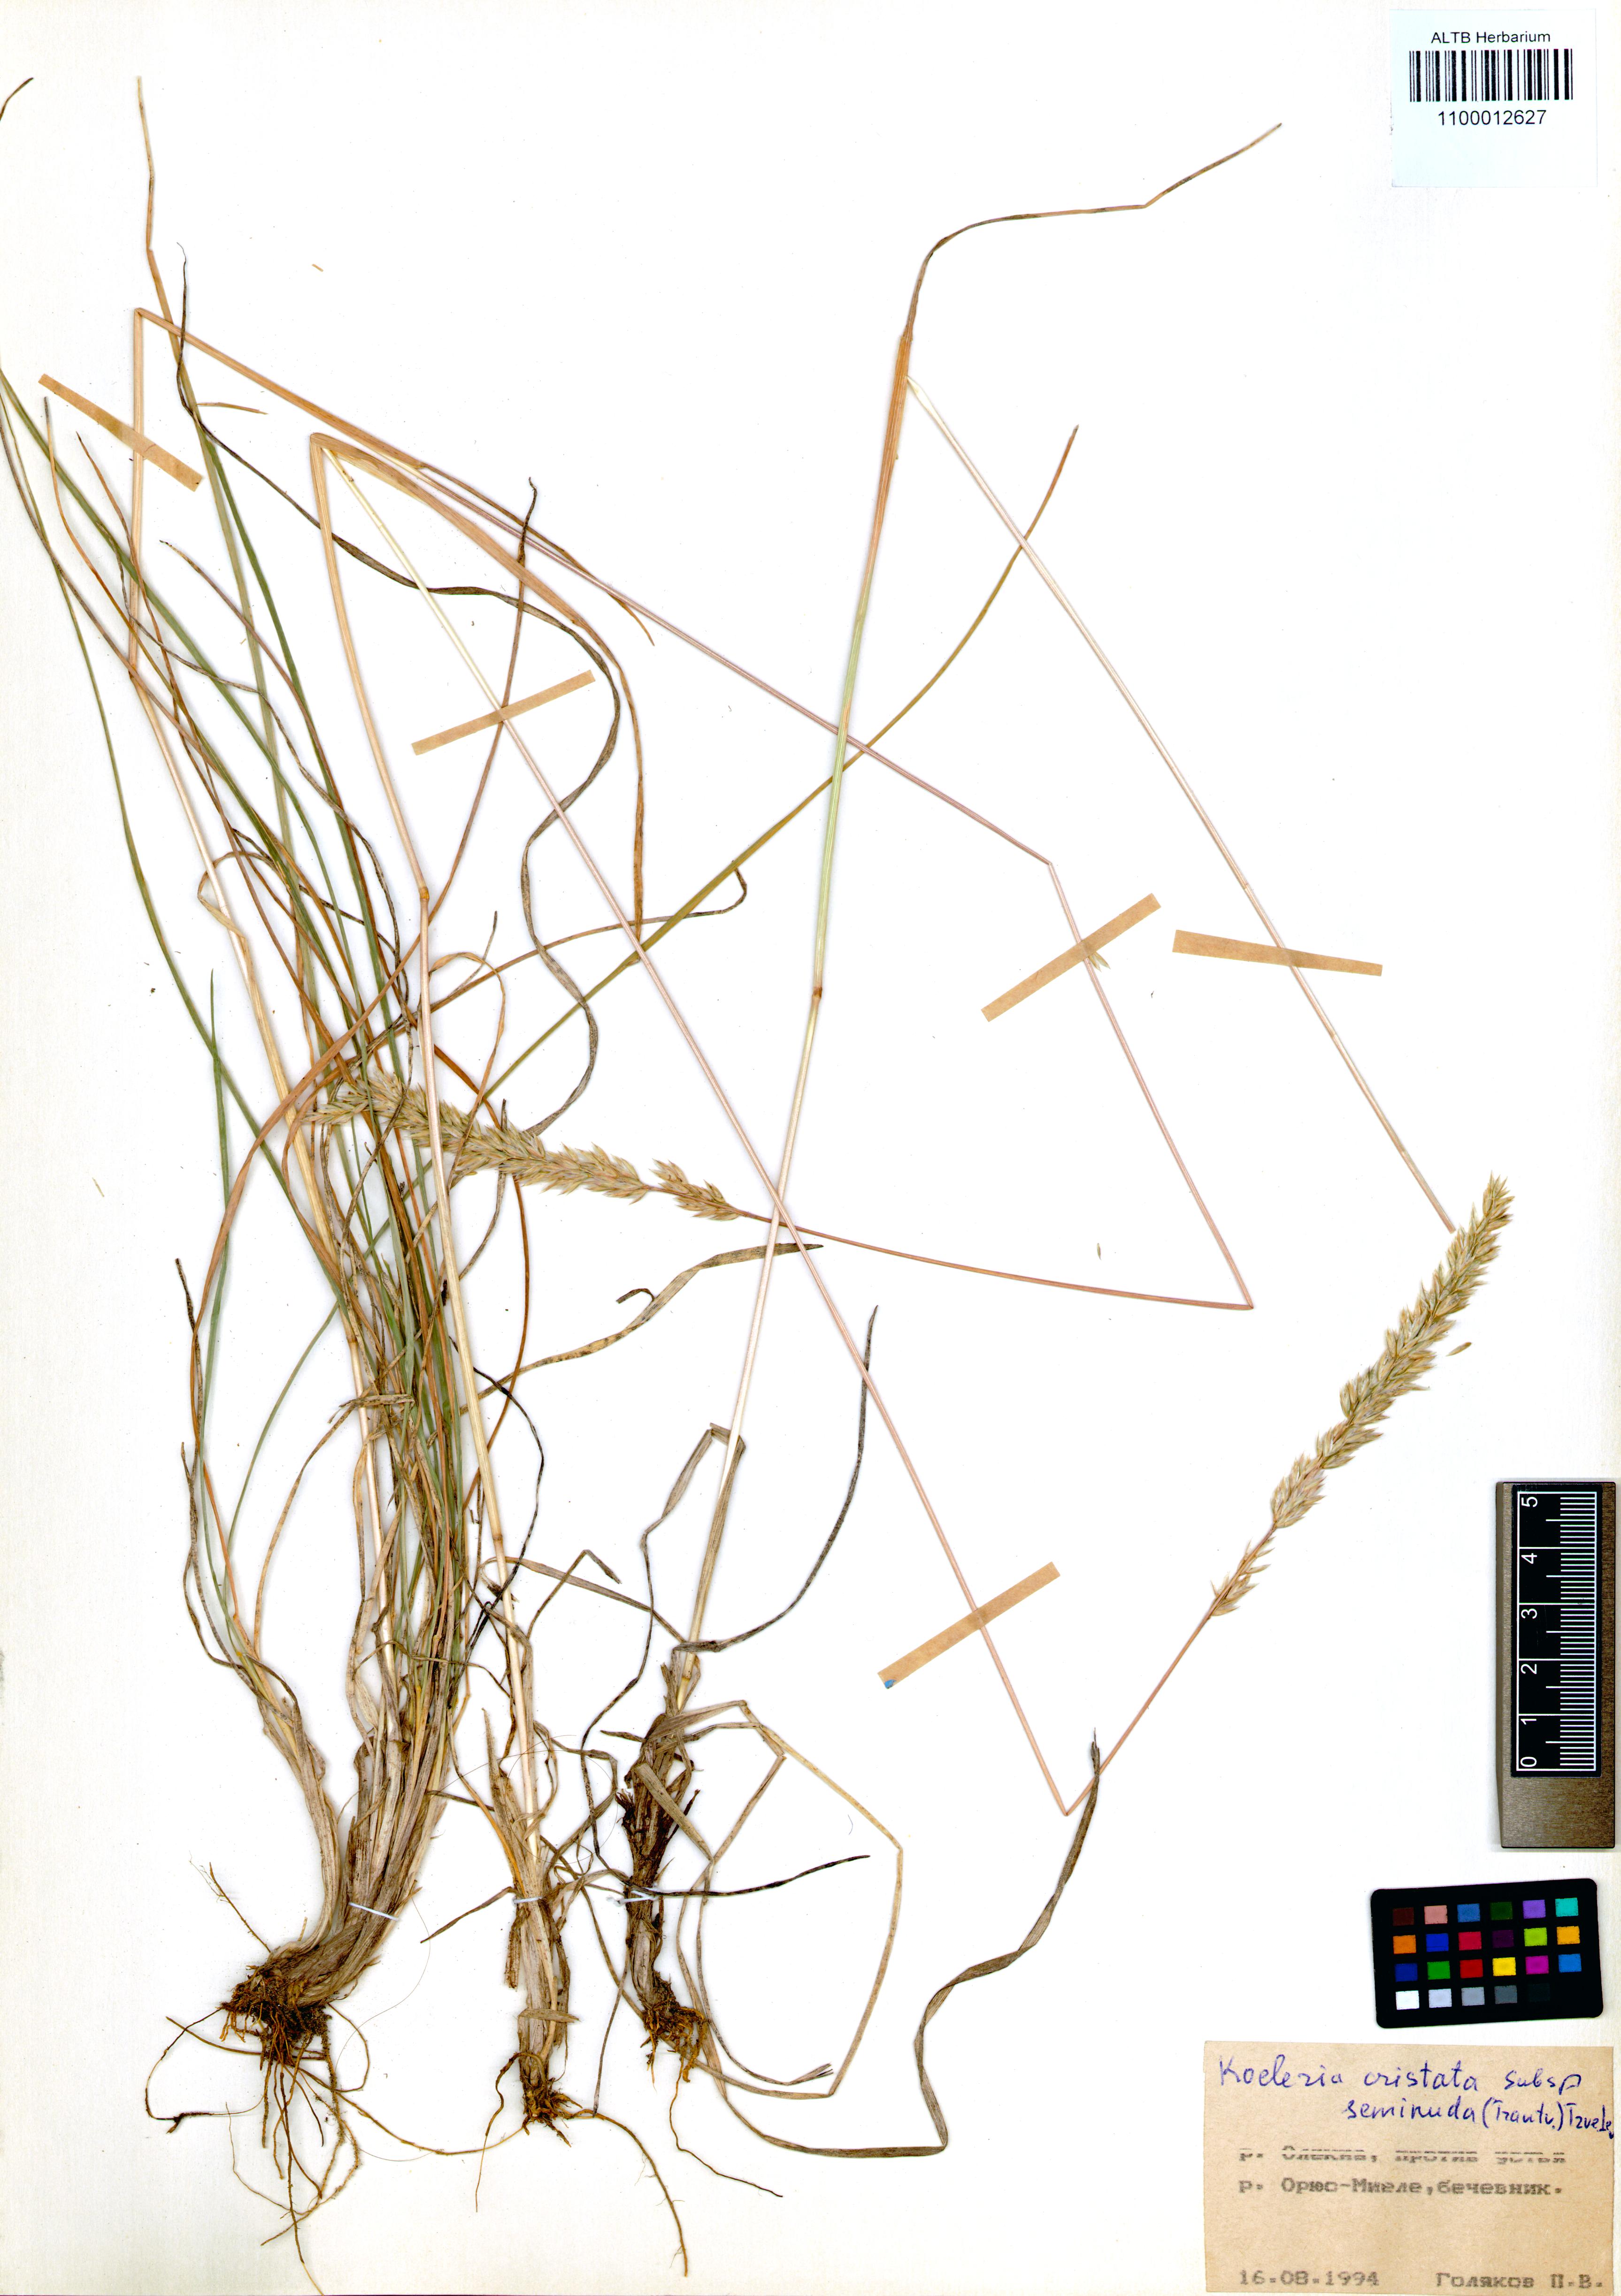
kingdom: Plantae
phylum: Tracheophyta
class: Liliopsida
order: Poales
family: Poaceae
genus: Koeleria
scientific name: Koeleria pyramidata
